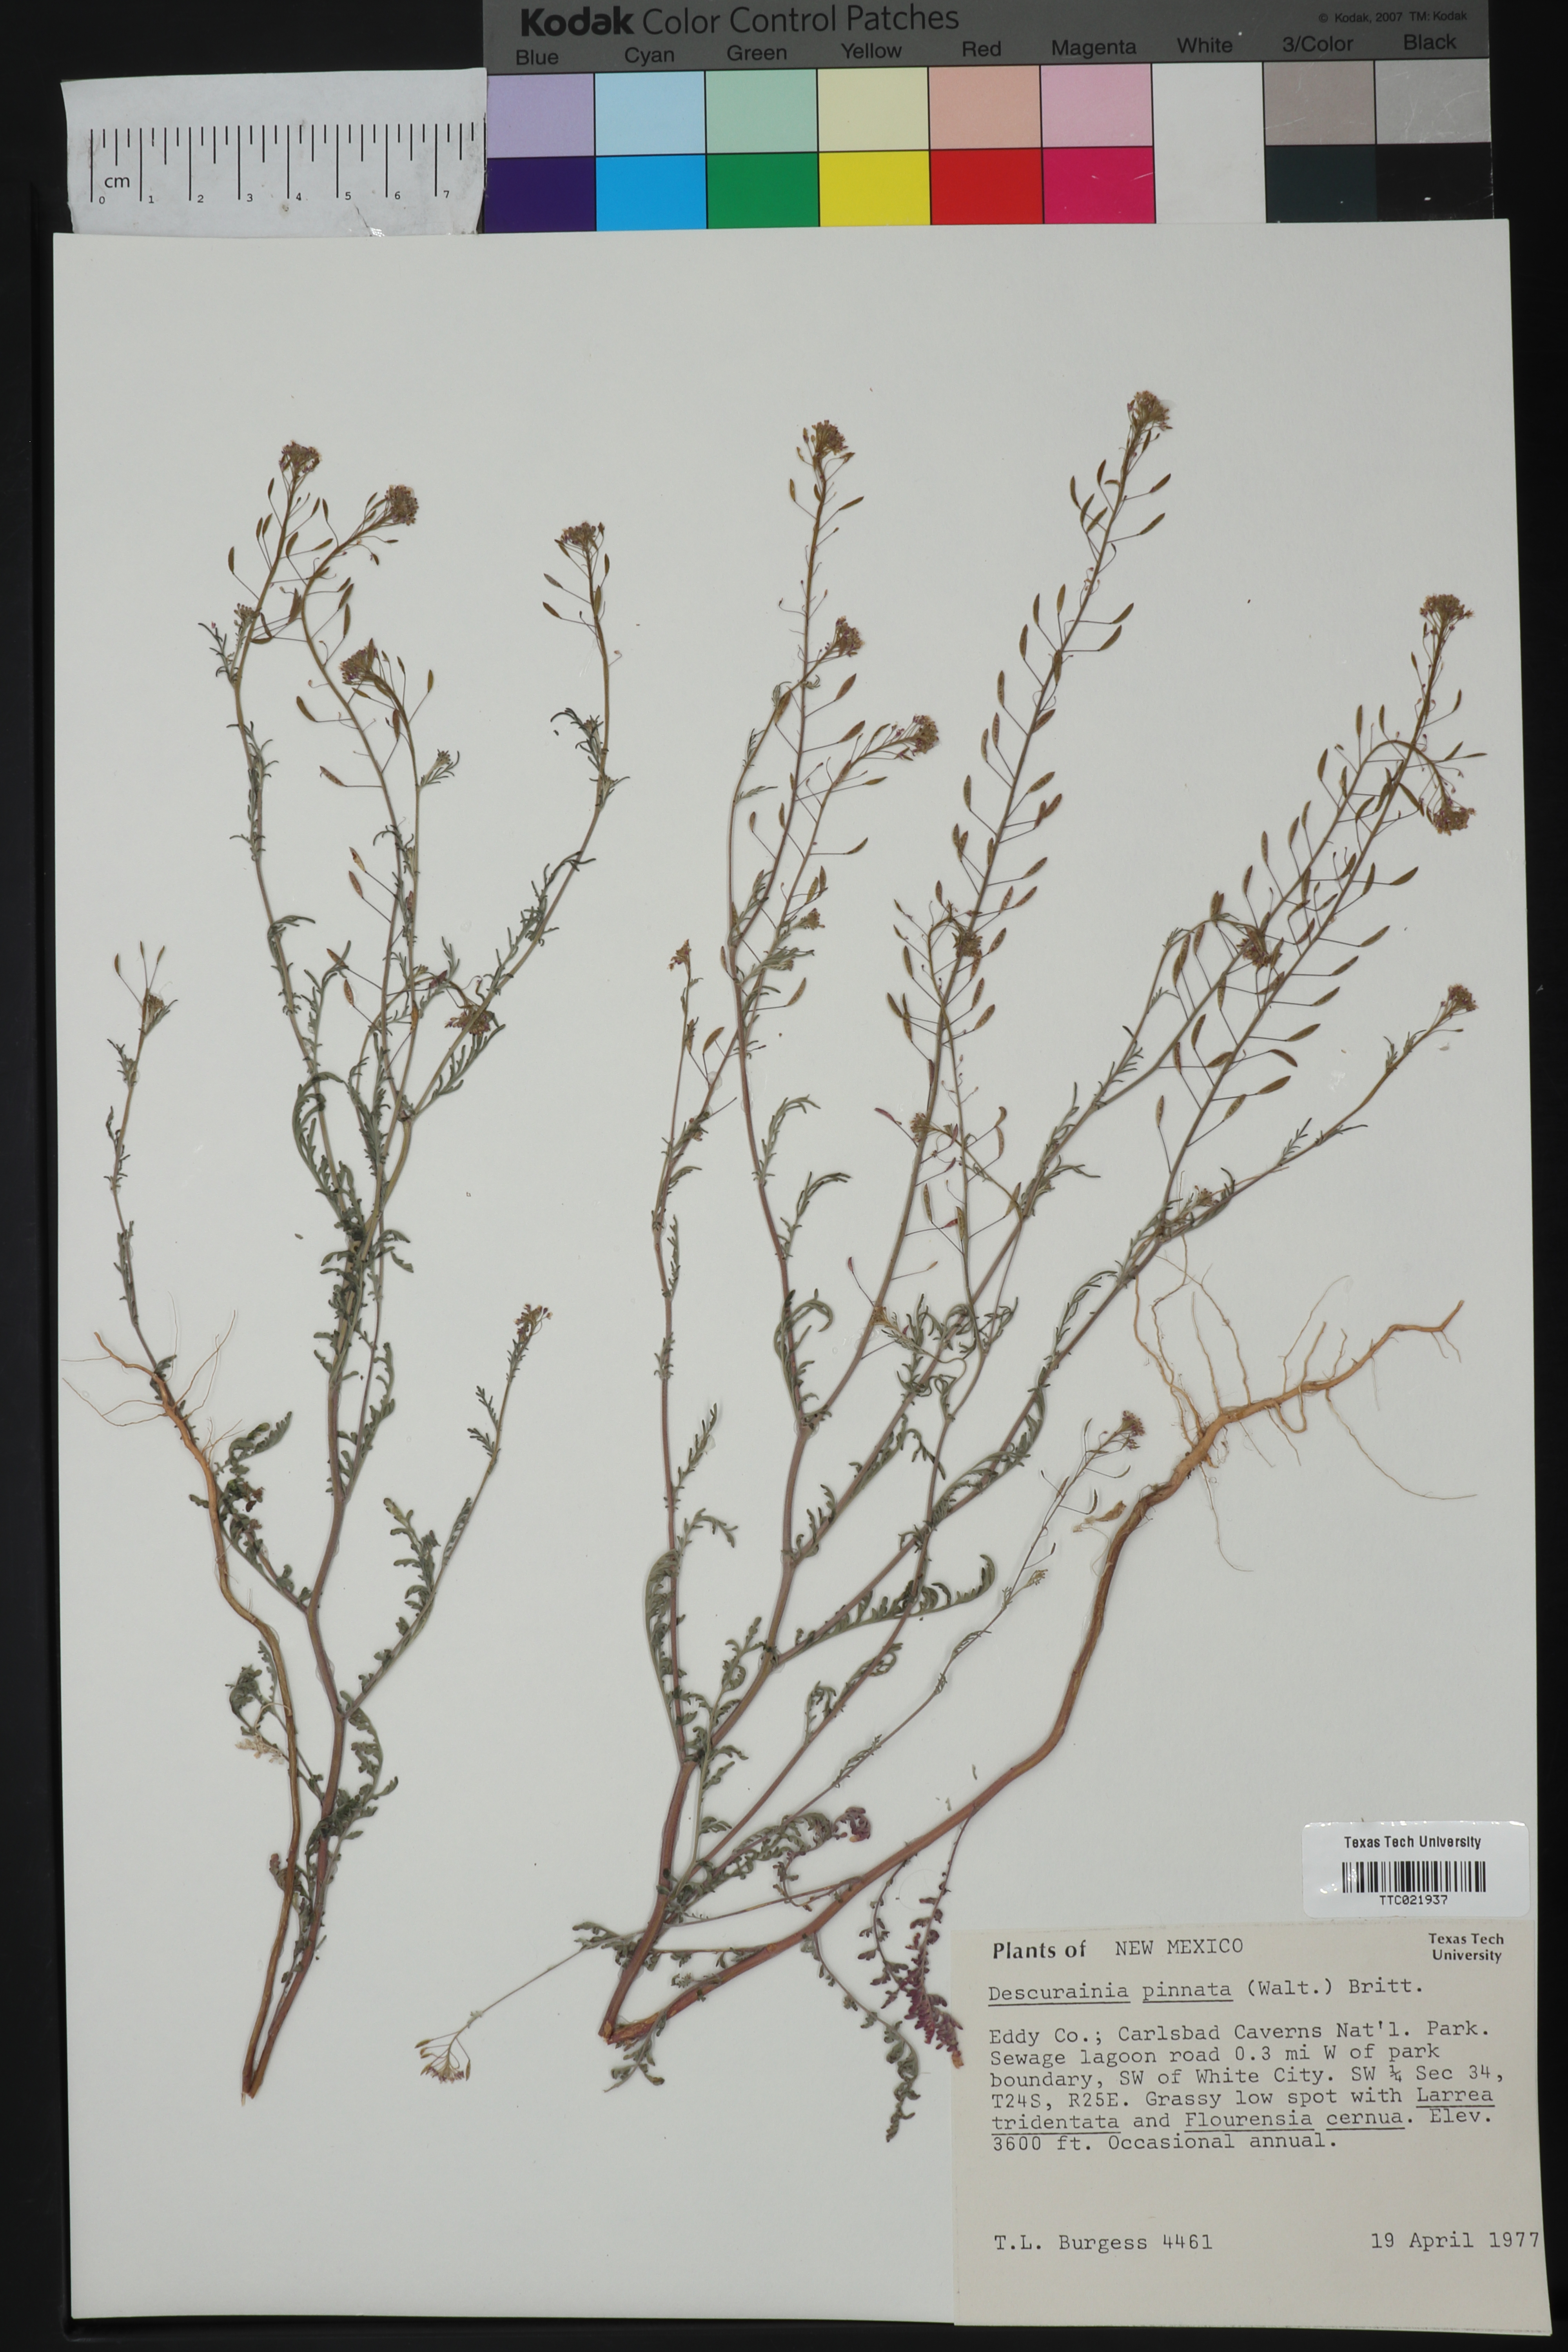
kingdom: Plantae
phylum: Tracheophyta
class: Magnoliopsida
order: Brassicales
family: Brassicaceae
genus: Descurainia
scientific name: Descurainia pinnata
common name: Western tansy mustard
